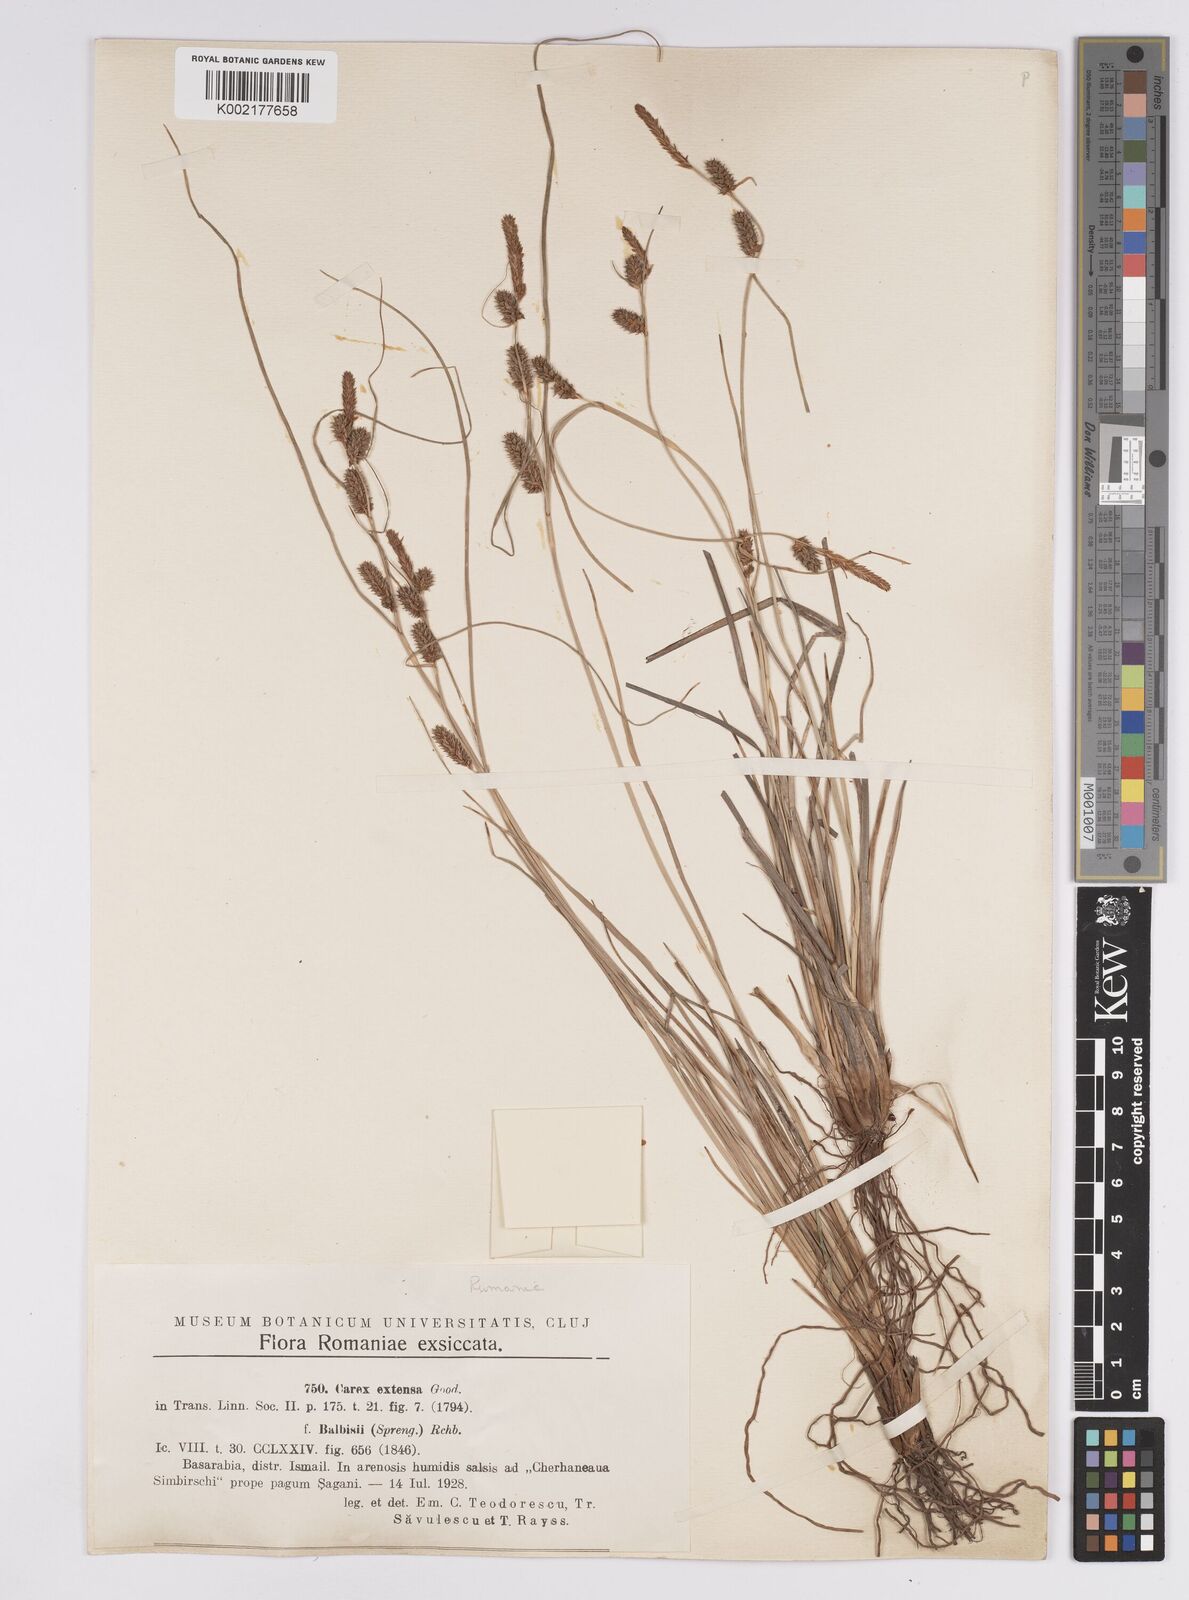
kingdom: Plantae
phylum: Tracheophyta
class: Liliopsida
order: Poales
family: Cyperaceae
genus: Carex
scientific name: Carex extensa
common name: Long-bracted sedge
